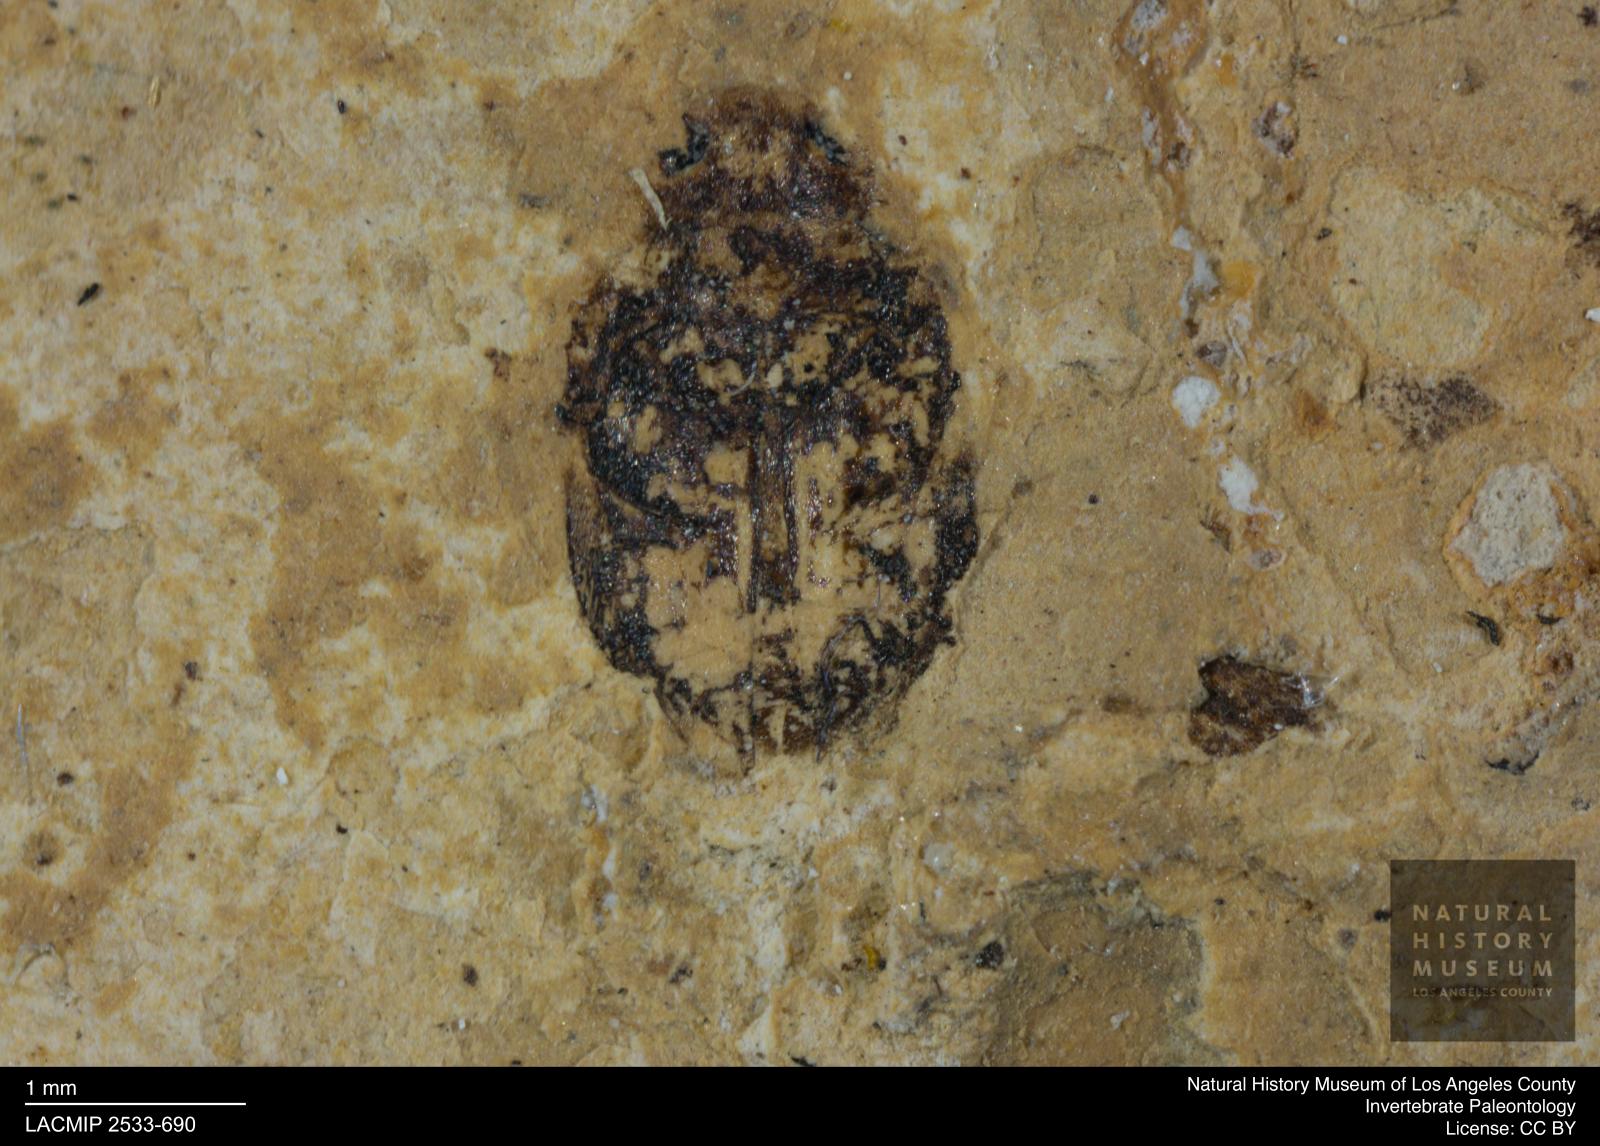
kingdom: Animalia
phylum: Arthropoda
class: Insecta
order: Coleoptera
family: Dytiscidae
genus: Oreodytes
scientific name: Oreodytes cryptolineatus
